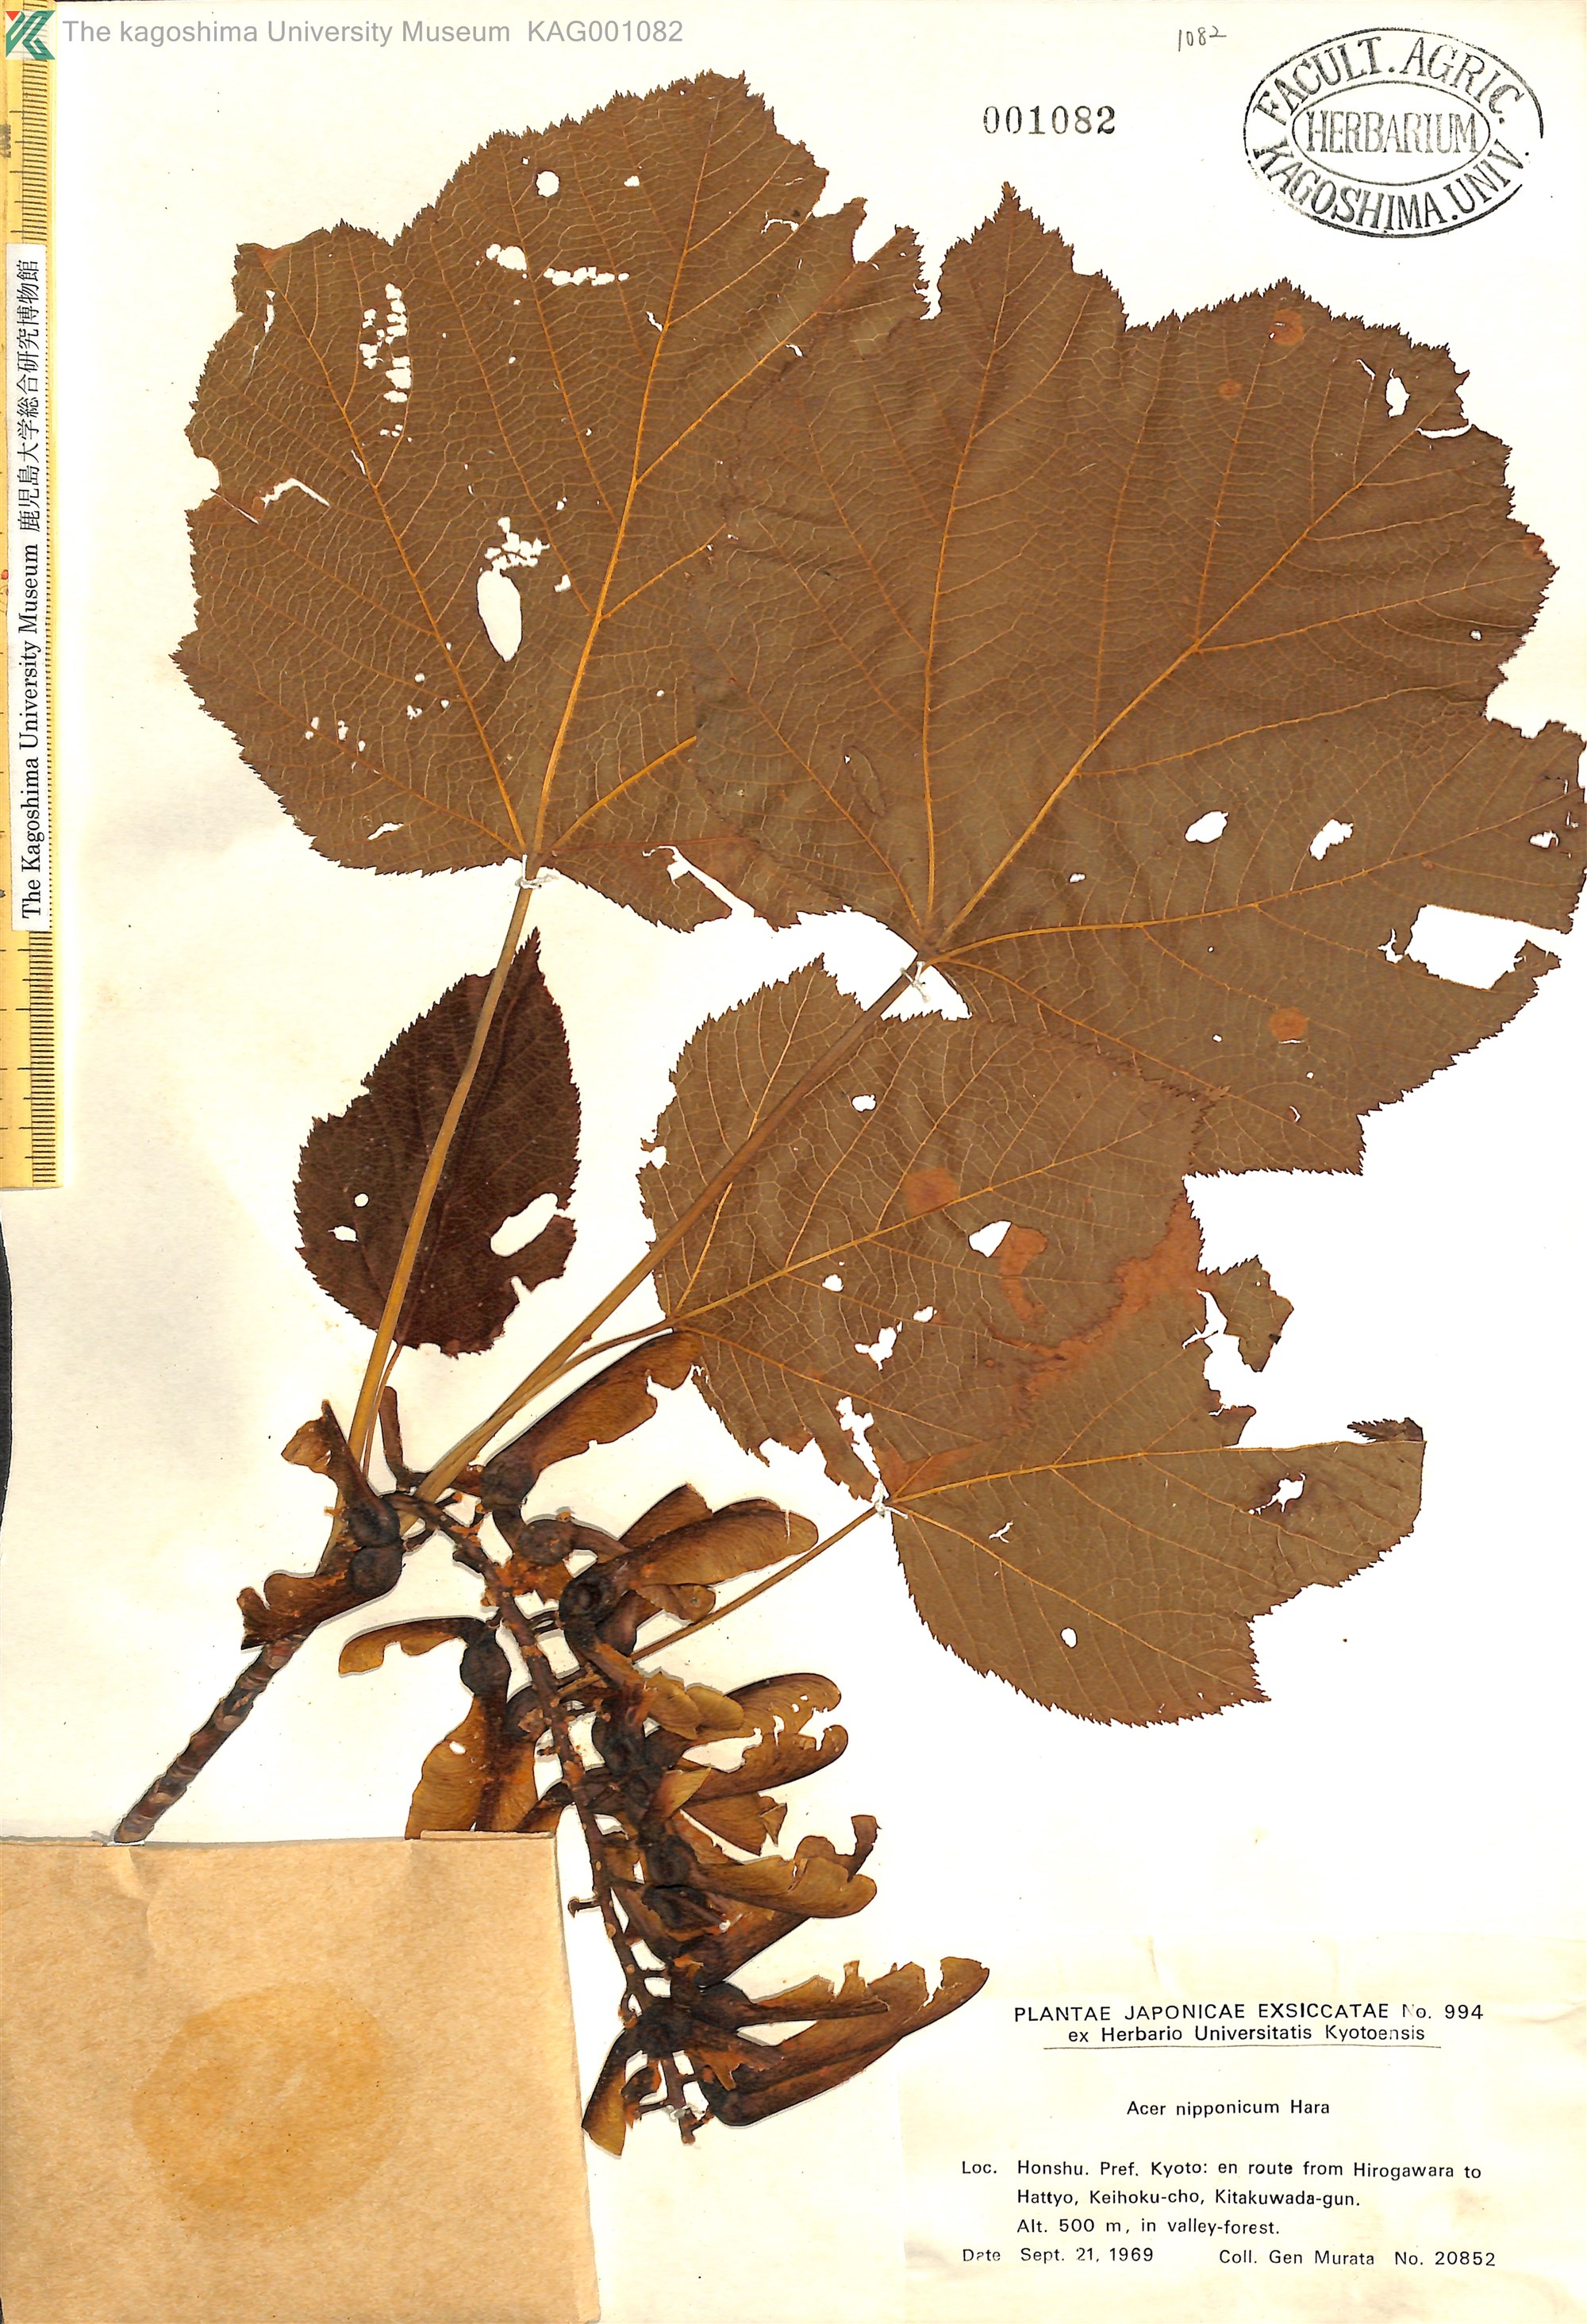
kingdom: Plantae
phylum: Tracheophyta
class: Magnoliopsida
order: Sapindales
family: Sapindaceae
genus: Acer
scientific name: Acer nipponicum
